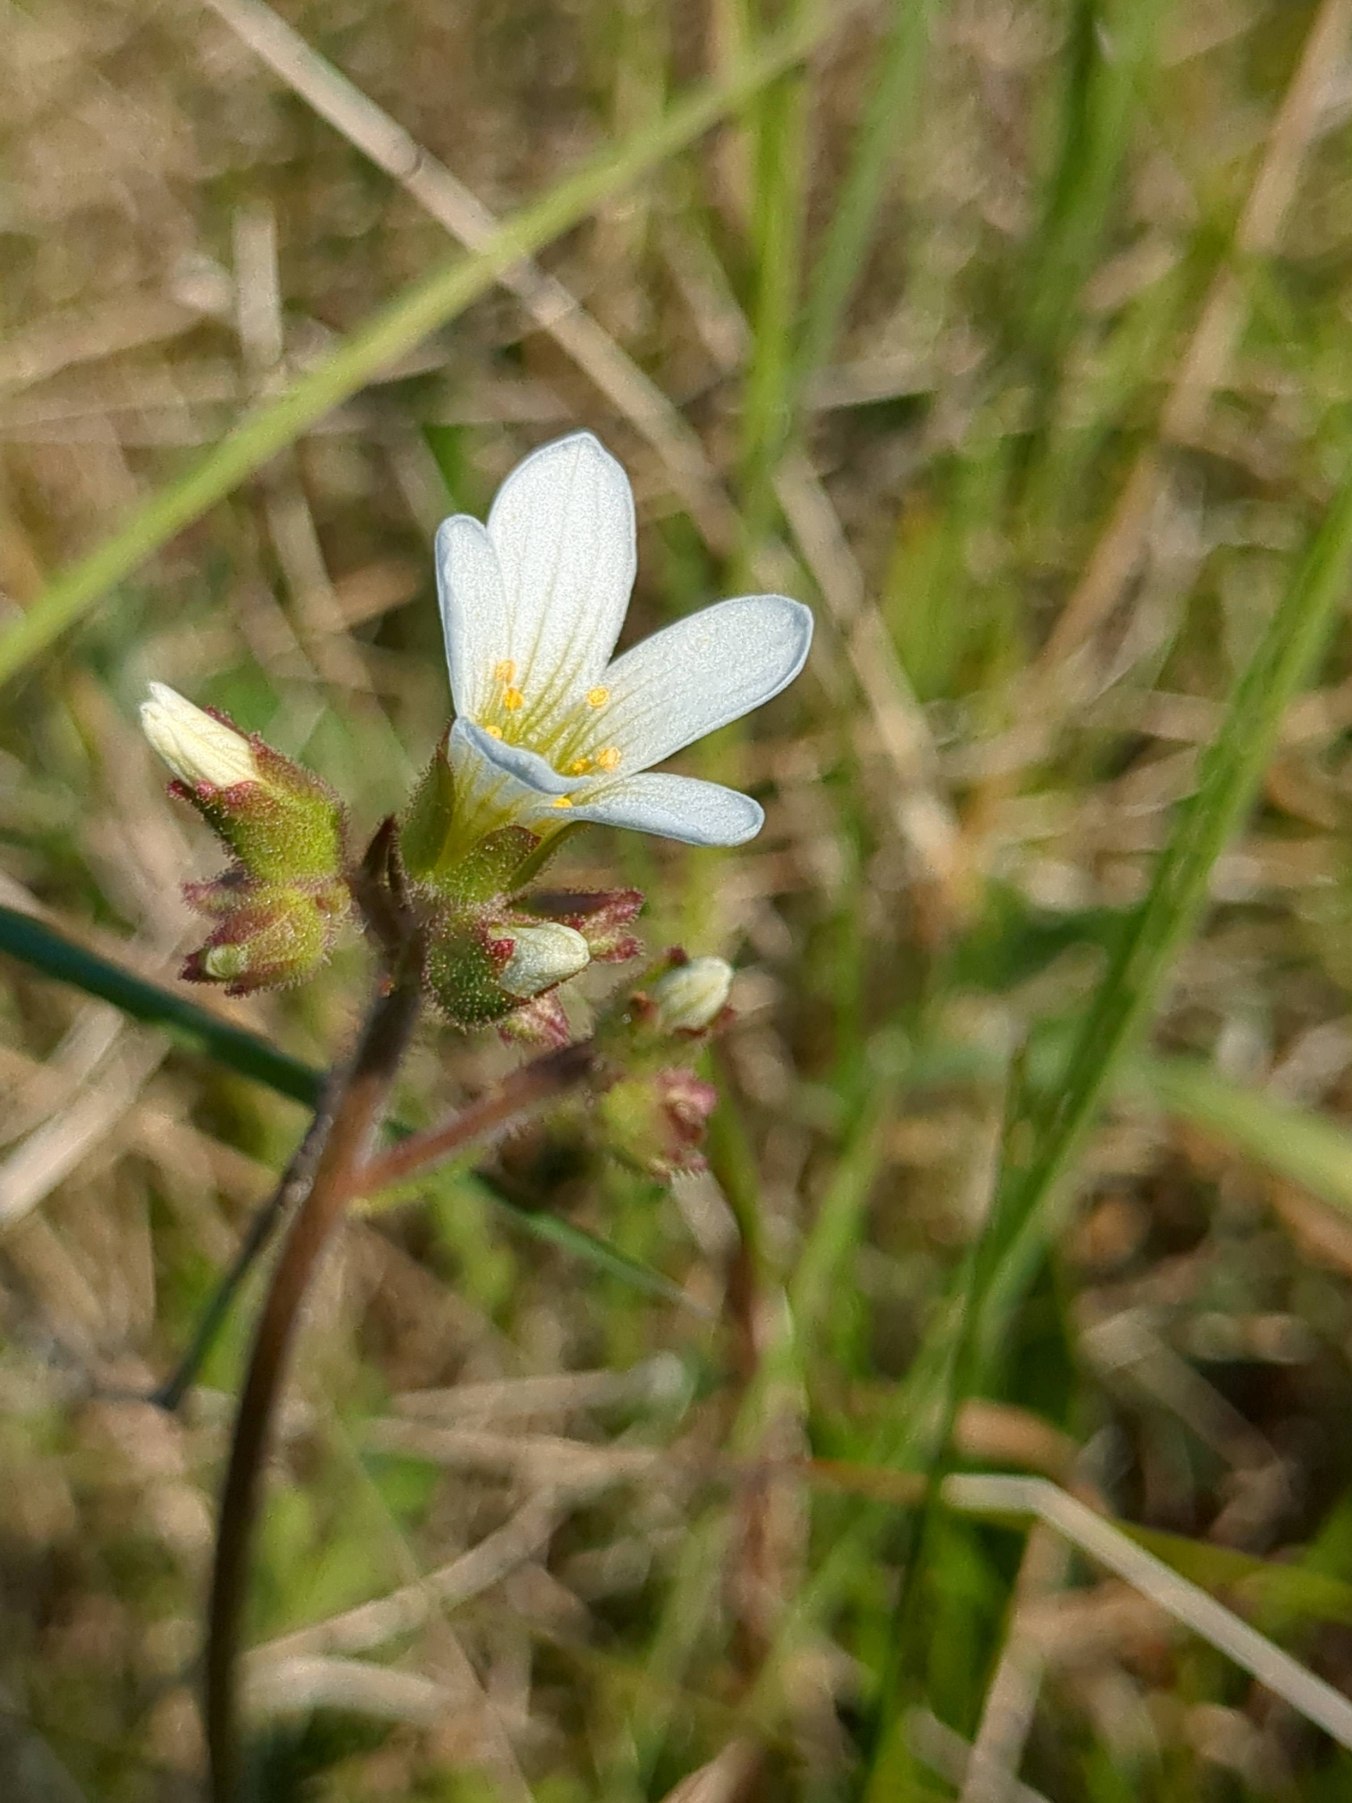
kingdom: Plantae
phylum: Tracheophyta
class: Magnoliopsida
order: Saxifragales
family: Saxifragaceae
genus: Saxifraga
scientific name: Saxifraga granulata
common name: Kornet stenbræk
